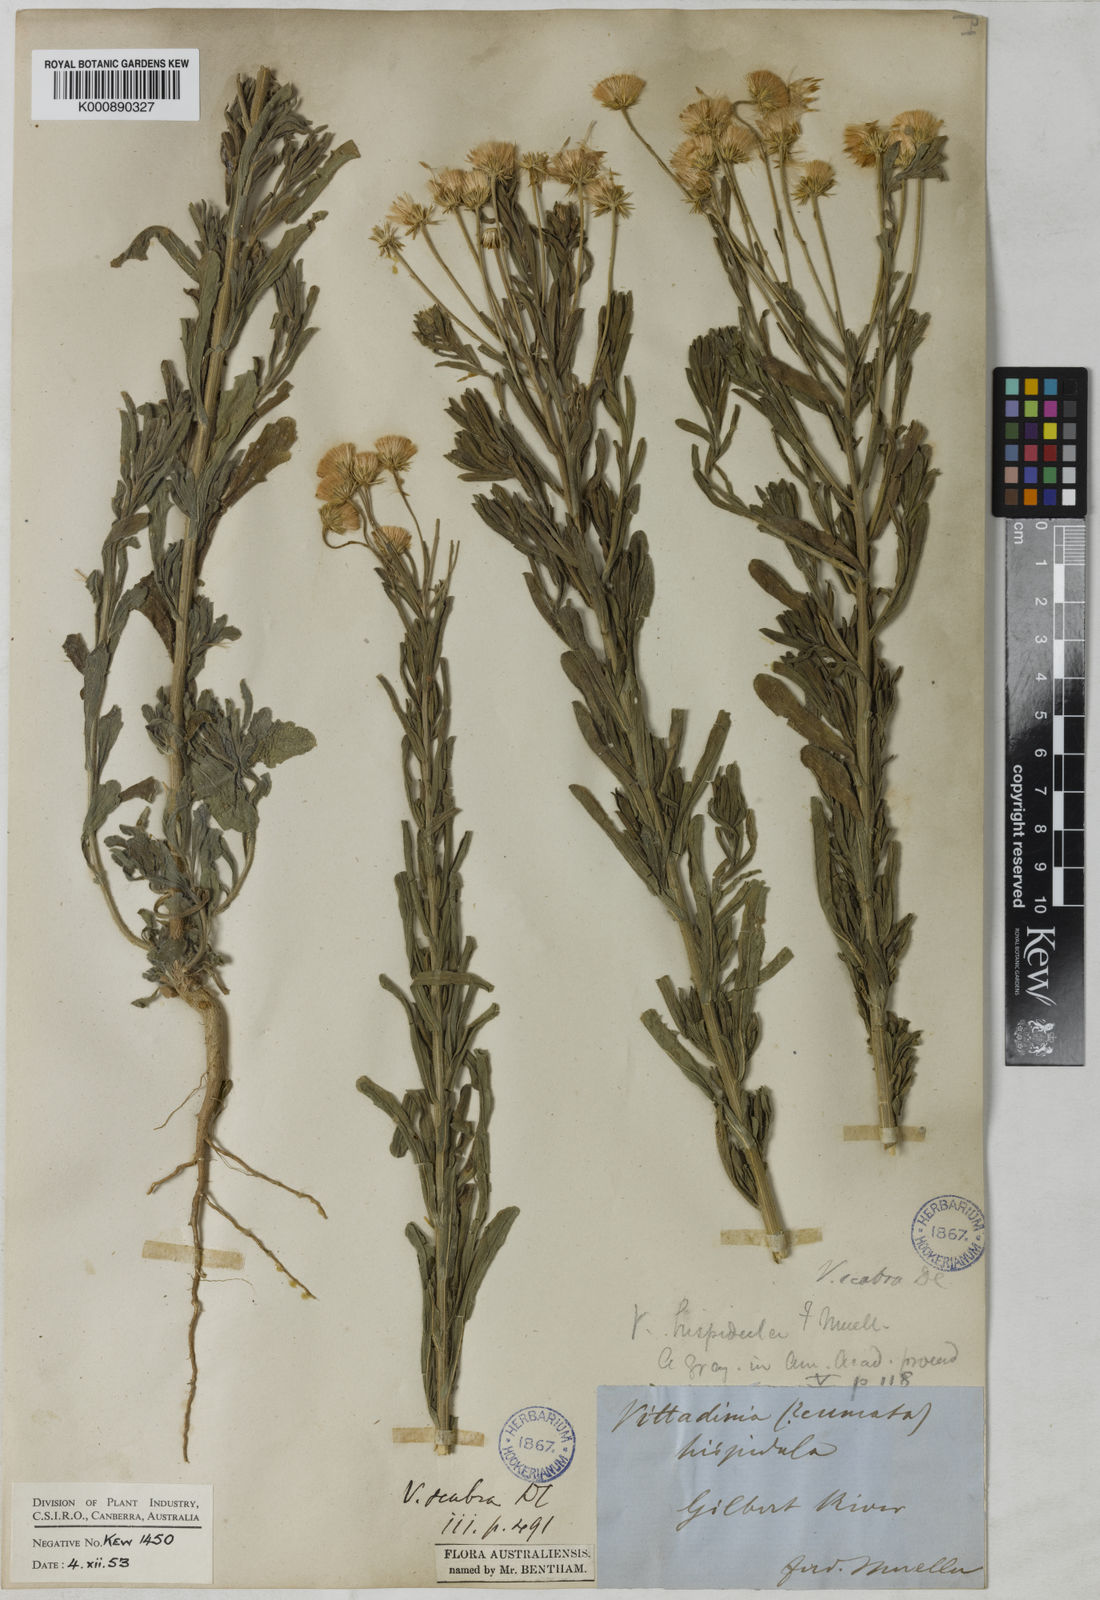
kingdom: Plantae
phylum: Tracheophyta
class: Magnoliopsida
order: Asterales
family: Asteraceae
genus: Peripleura
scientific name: Peripleura hispidula
